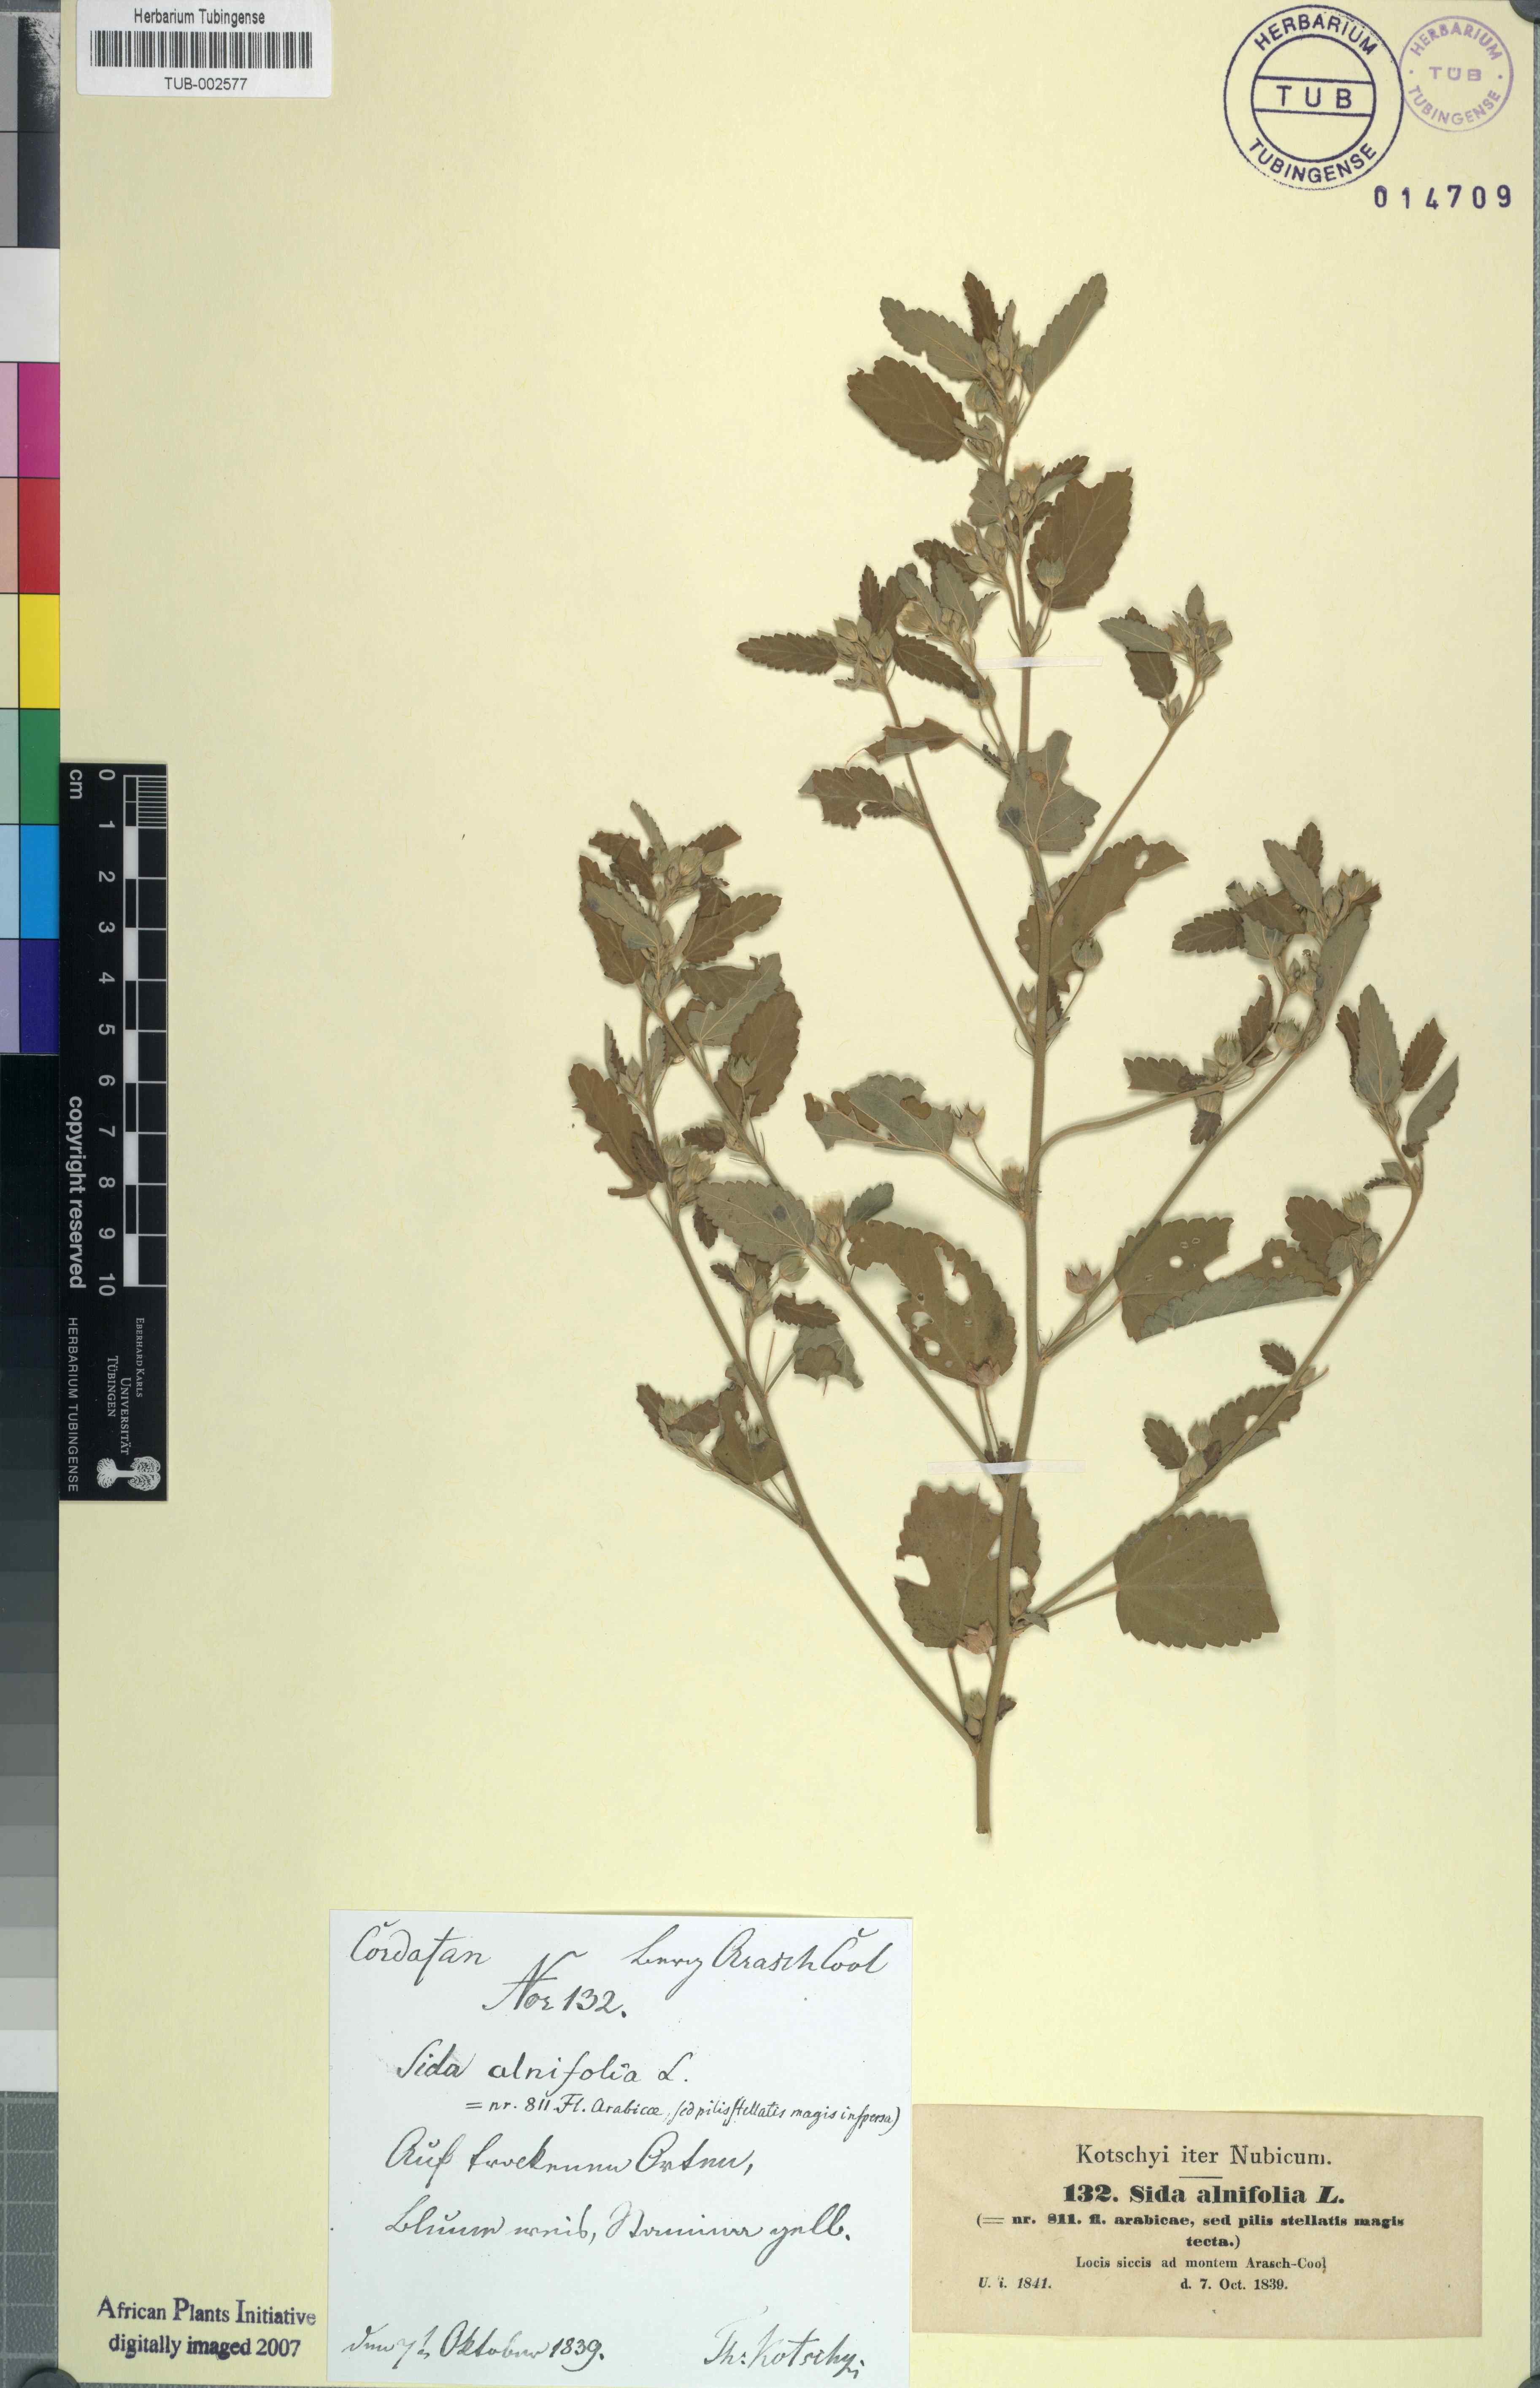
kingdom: Plantae
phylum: Tracheophyta
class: Magnoliopsida
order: Malvales
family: Malvaceae
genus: Sida
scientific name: Sida spinosa
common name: Prickly fanpetals
